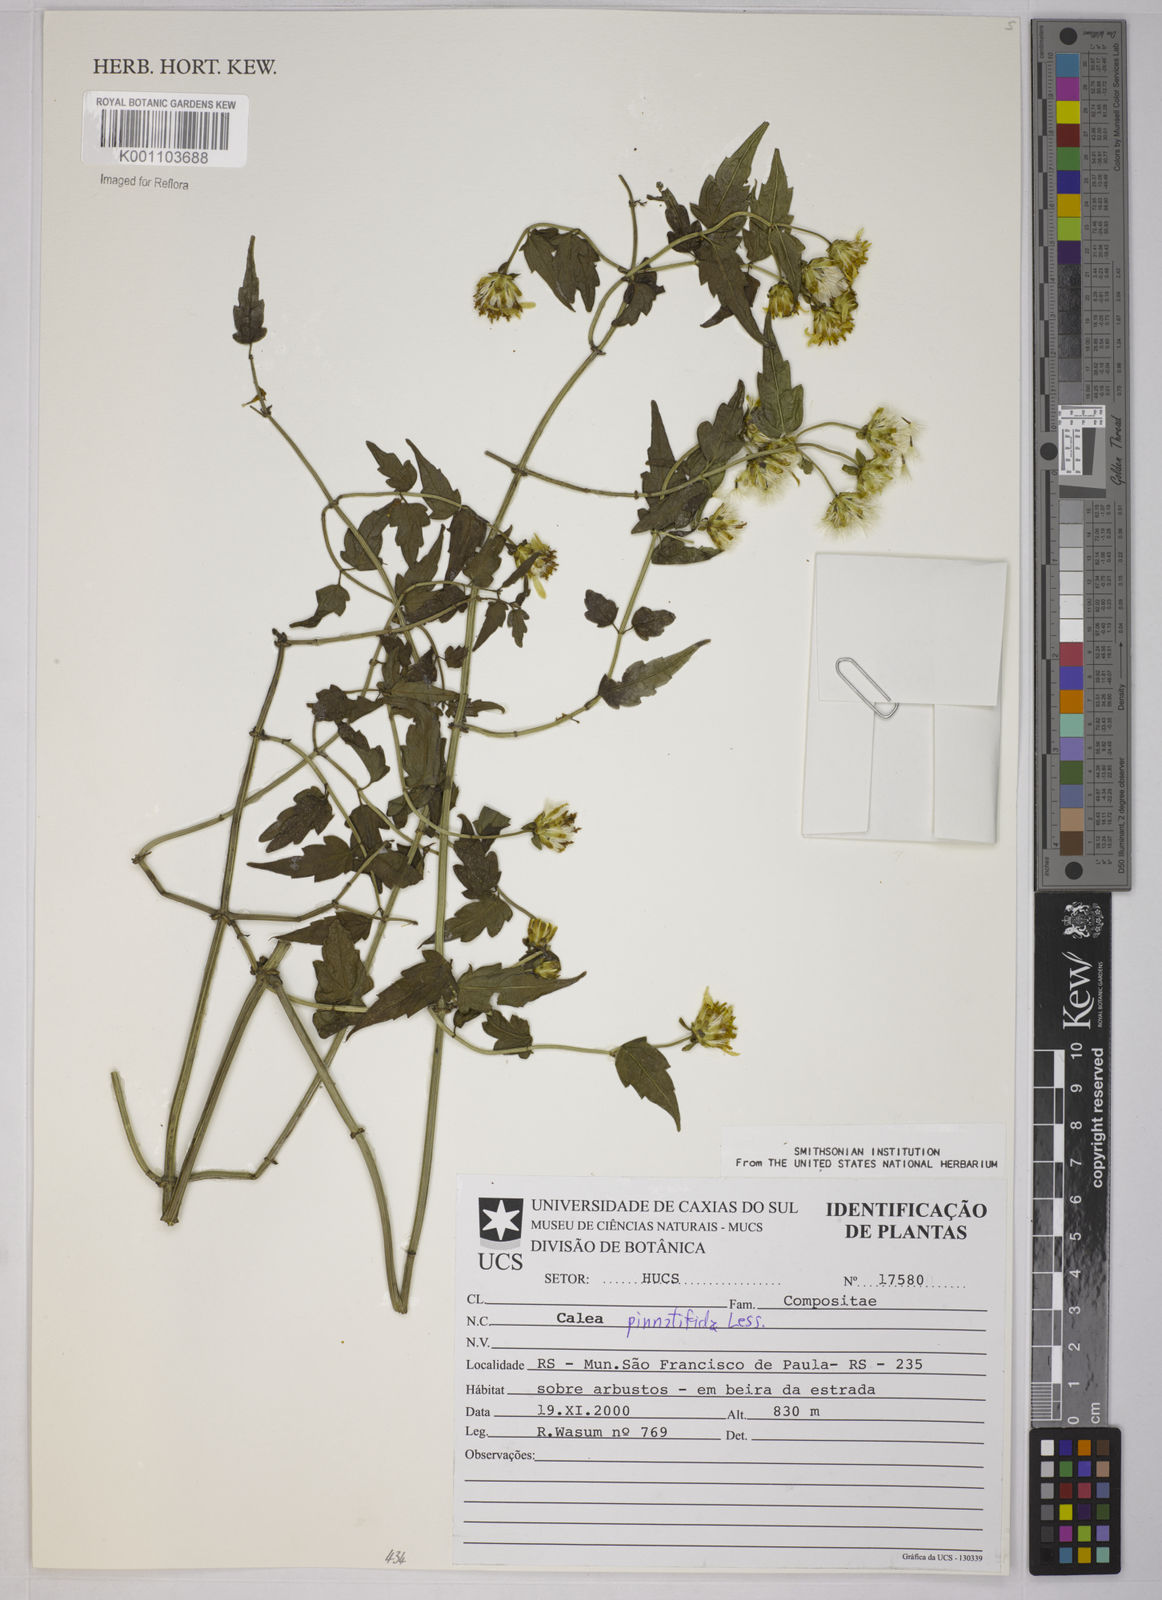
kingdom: Plantae
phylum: Tracheophyta
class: Magnoliopsida
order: Asterales
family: Asteraceae
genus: Calea
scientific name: Calea
